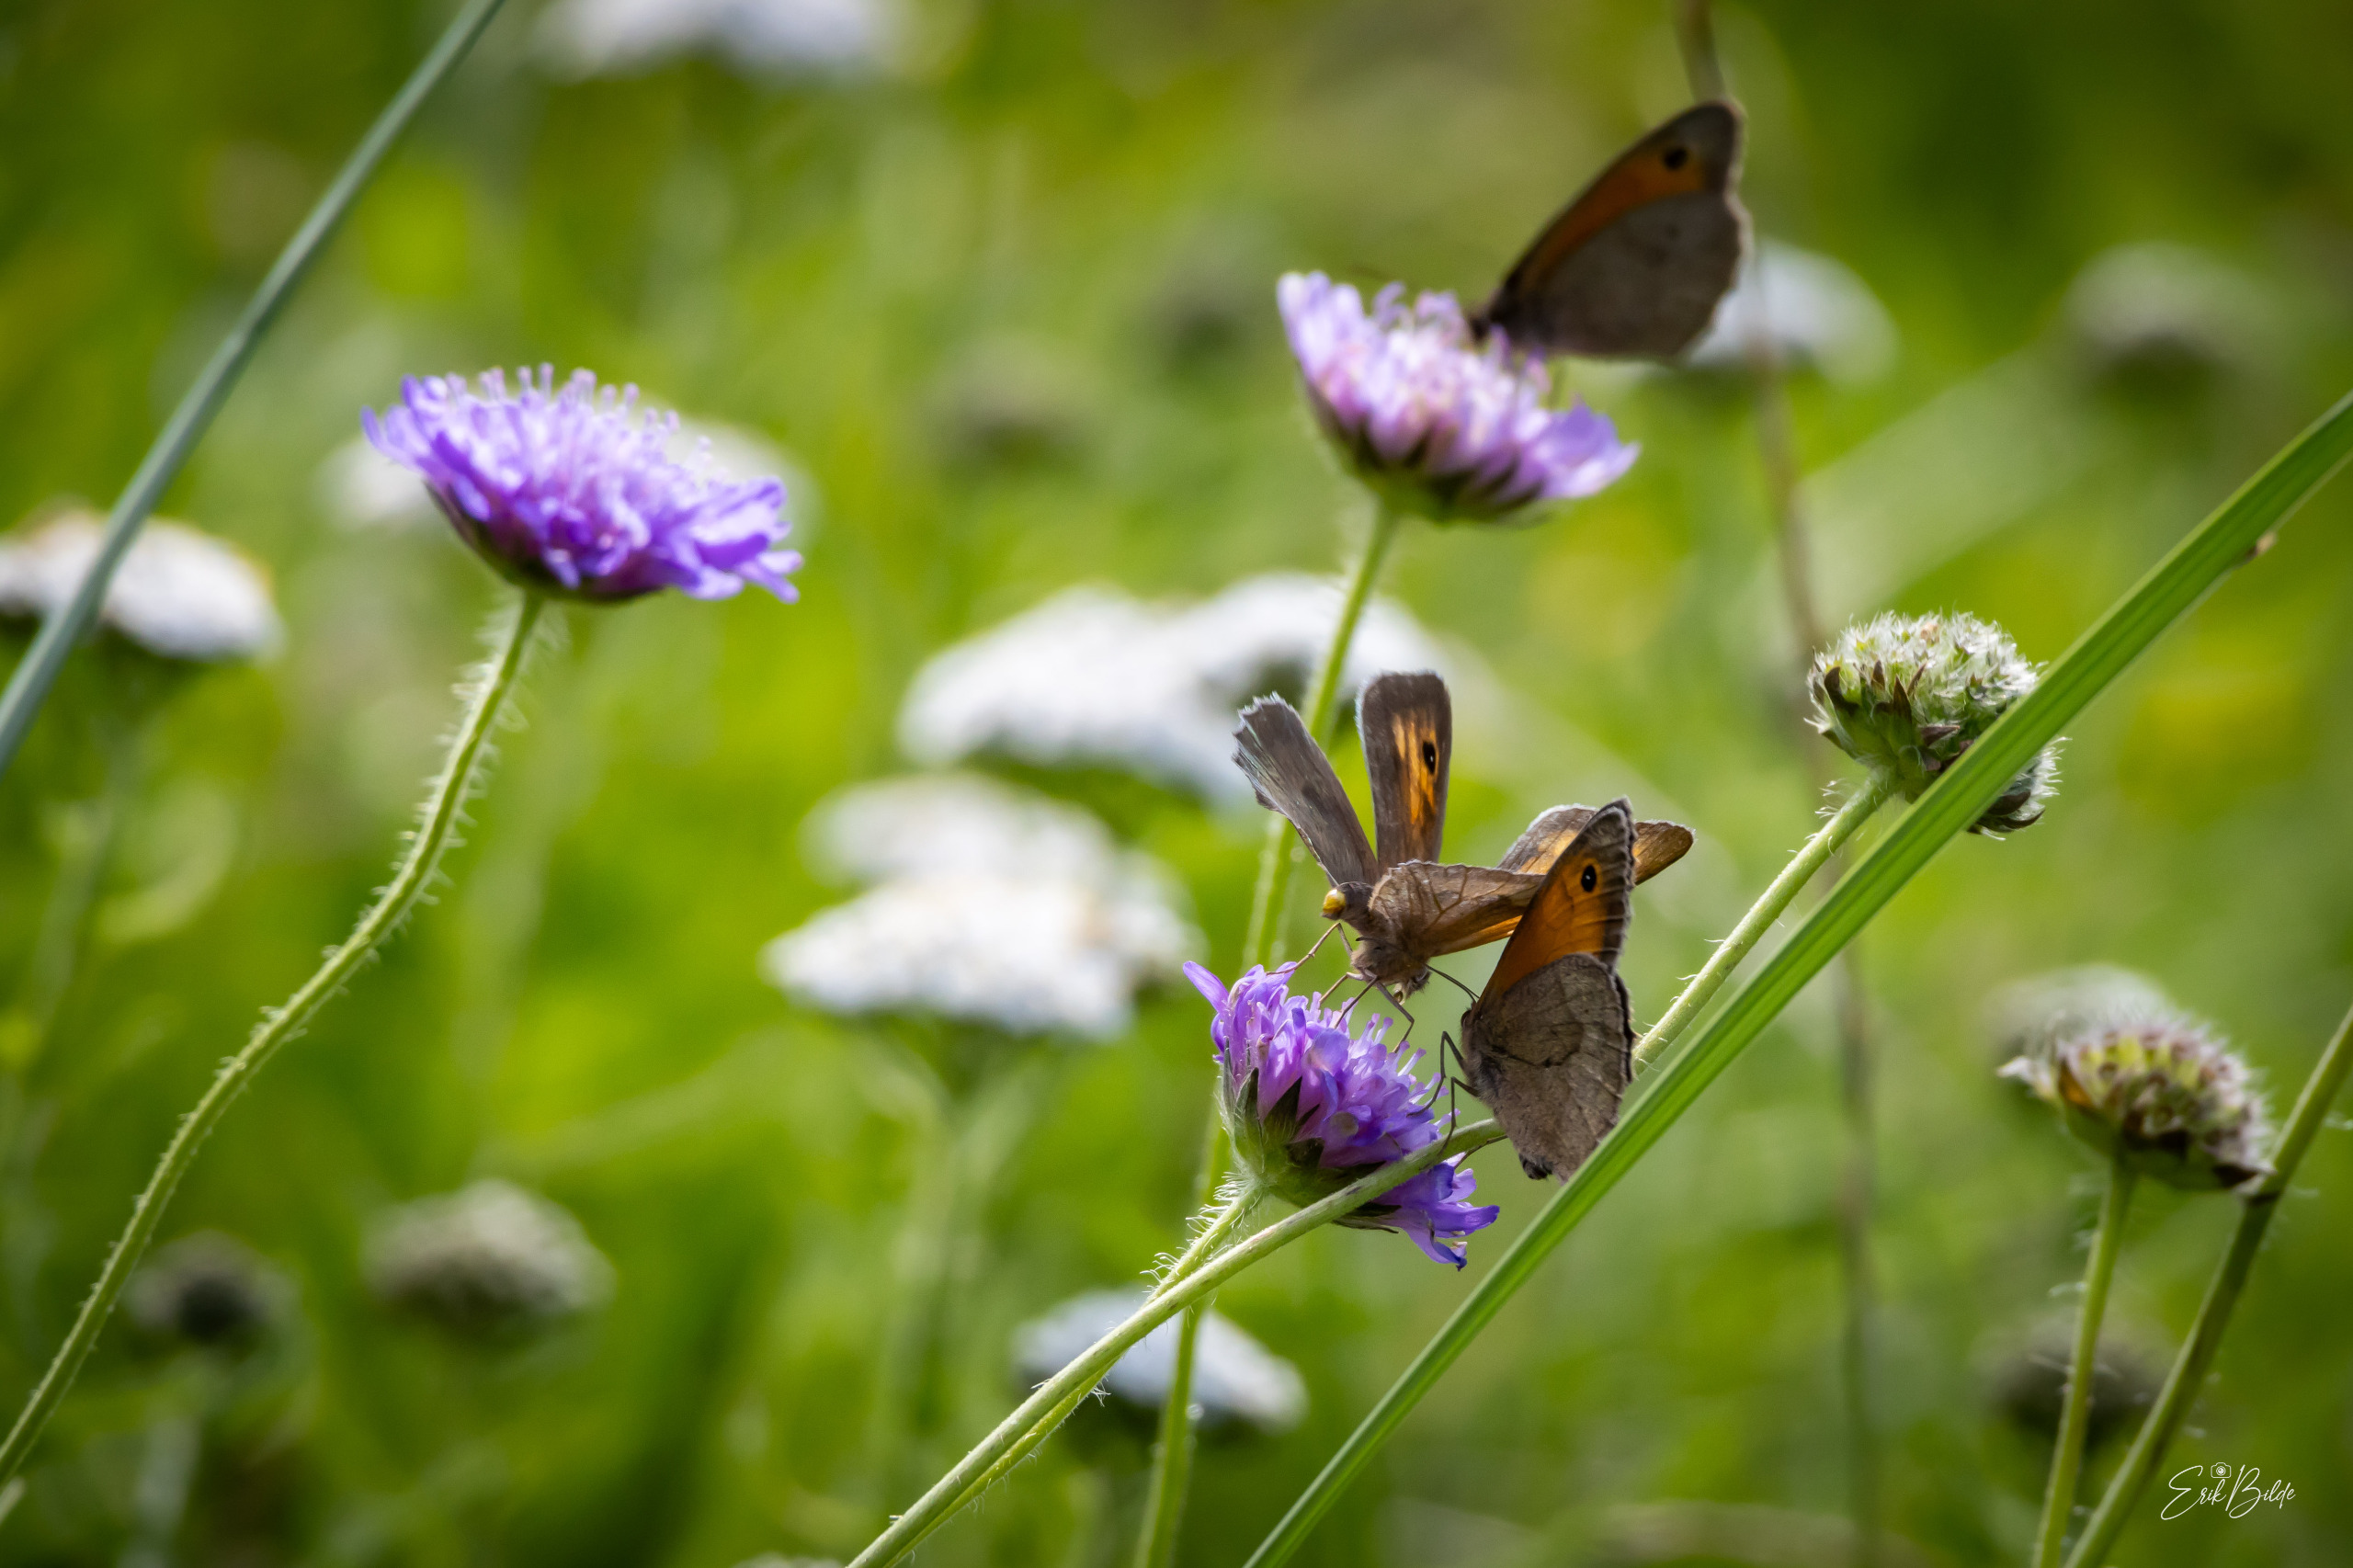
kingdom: Animalia
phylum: Arthropoda
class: Insecta
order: Lepidoptera
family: Nymphalidae
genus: Maniola
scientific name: Maniola jurtina
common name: Græsrandøje
